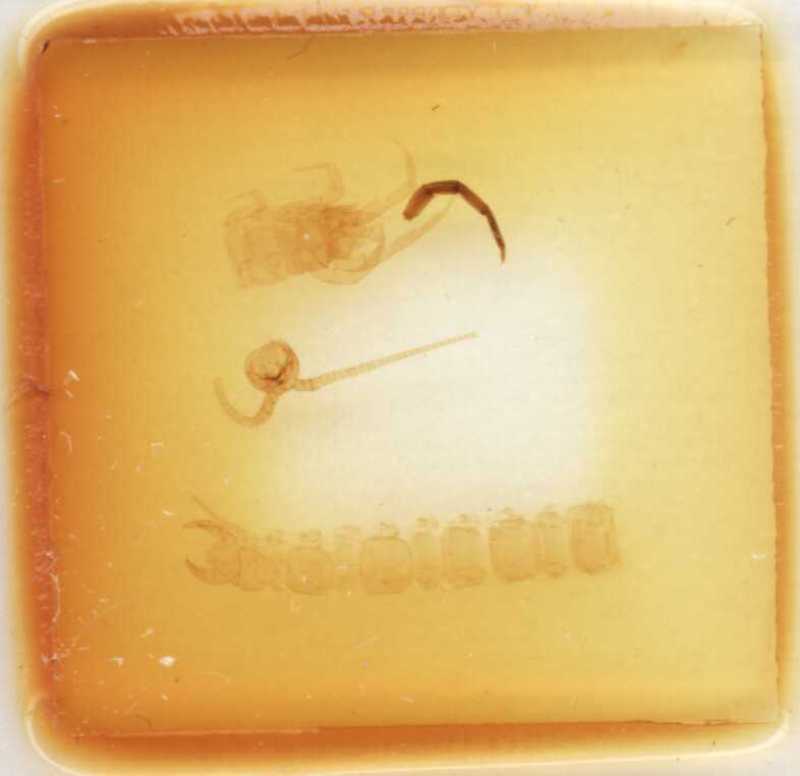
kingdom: Animalia
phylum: Arthropoda
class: Chilopoda
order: Lithobiomorpha
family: Lithobiidae
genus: Lithobius
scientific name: Lithobius subtilis
